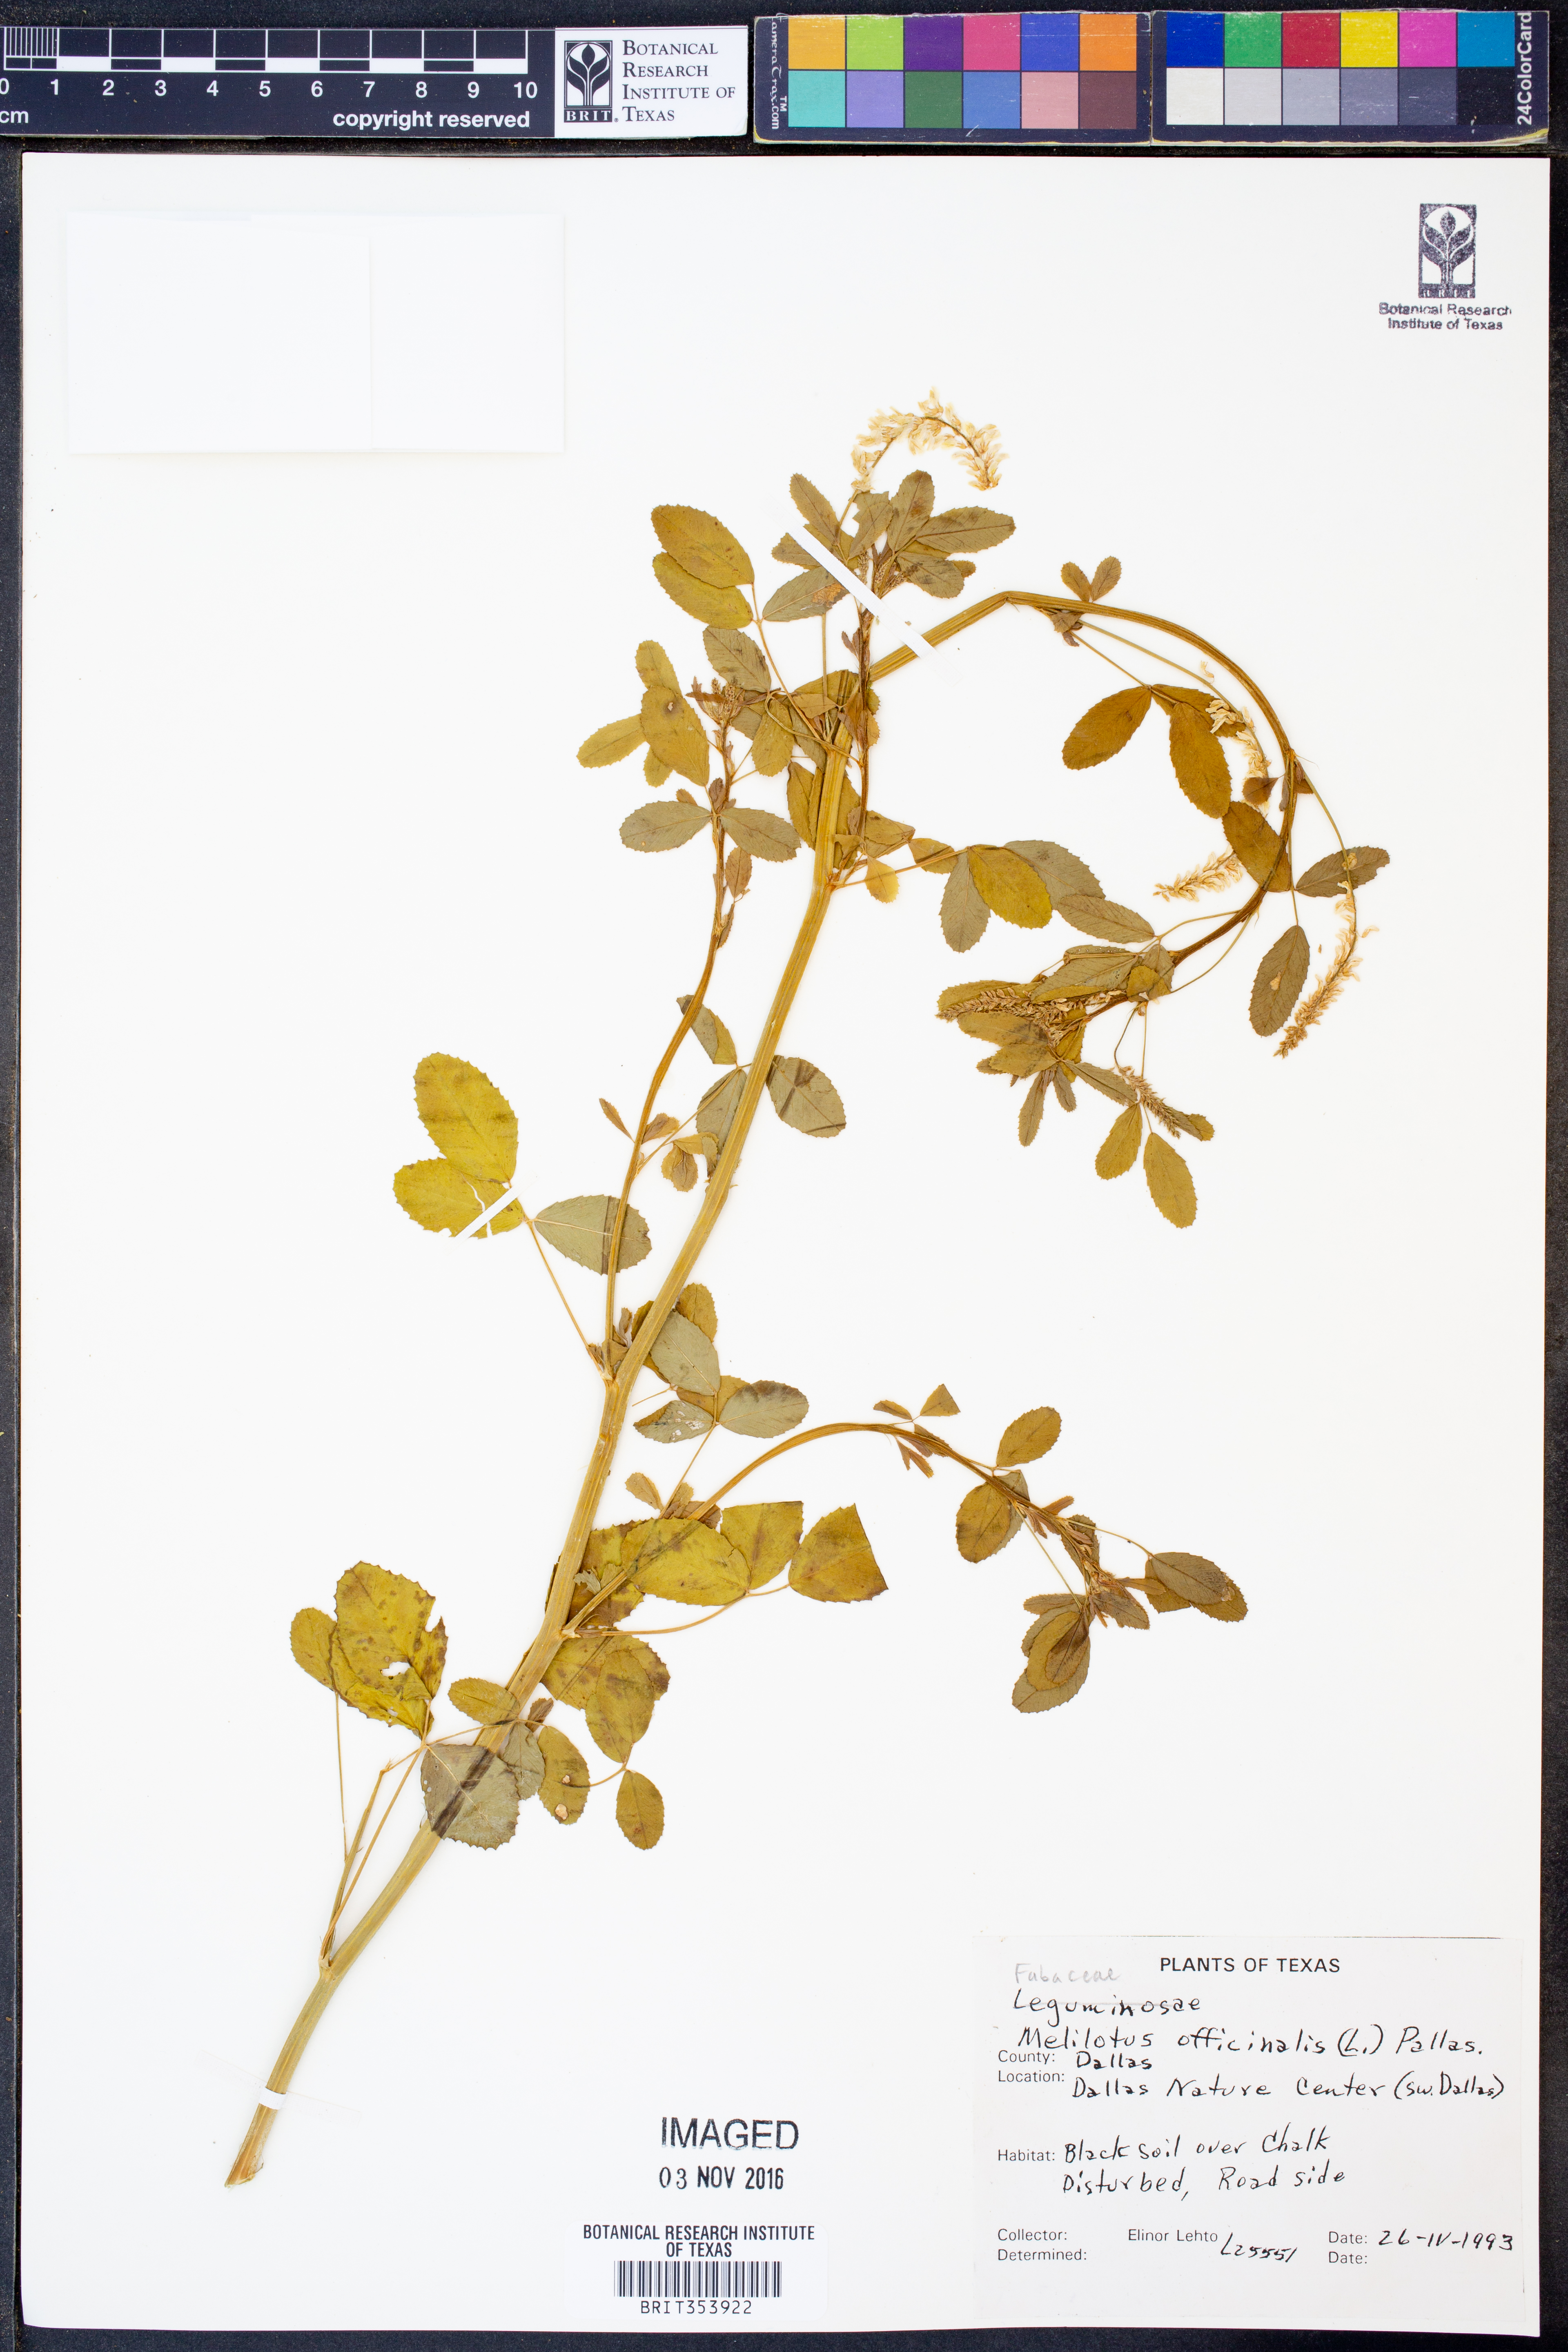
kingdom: Plantae
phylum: Tracheophyta
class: Magnoliopsida
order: Fabales
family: Fabaceae
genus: Melilotus
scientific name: Melilotus officinalis
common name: Sweetclover
